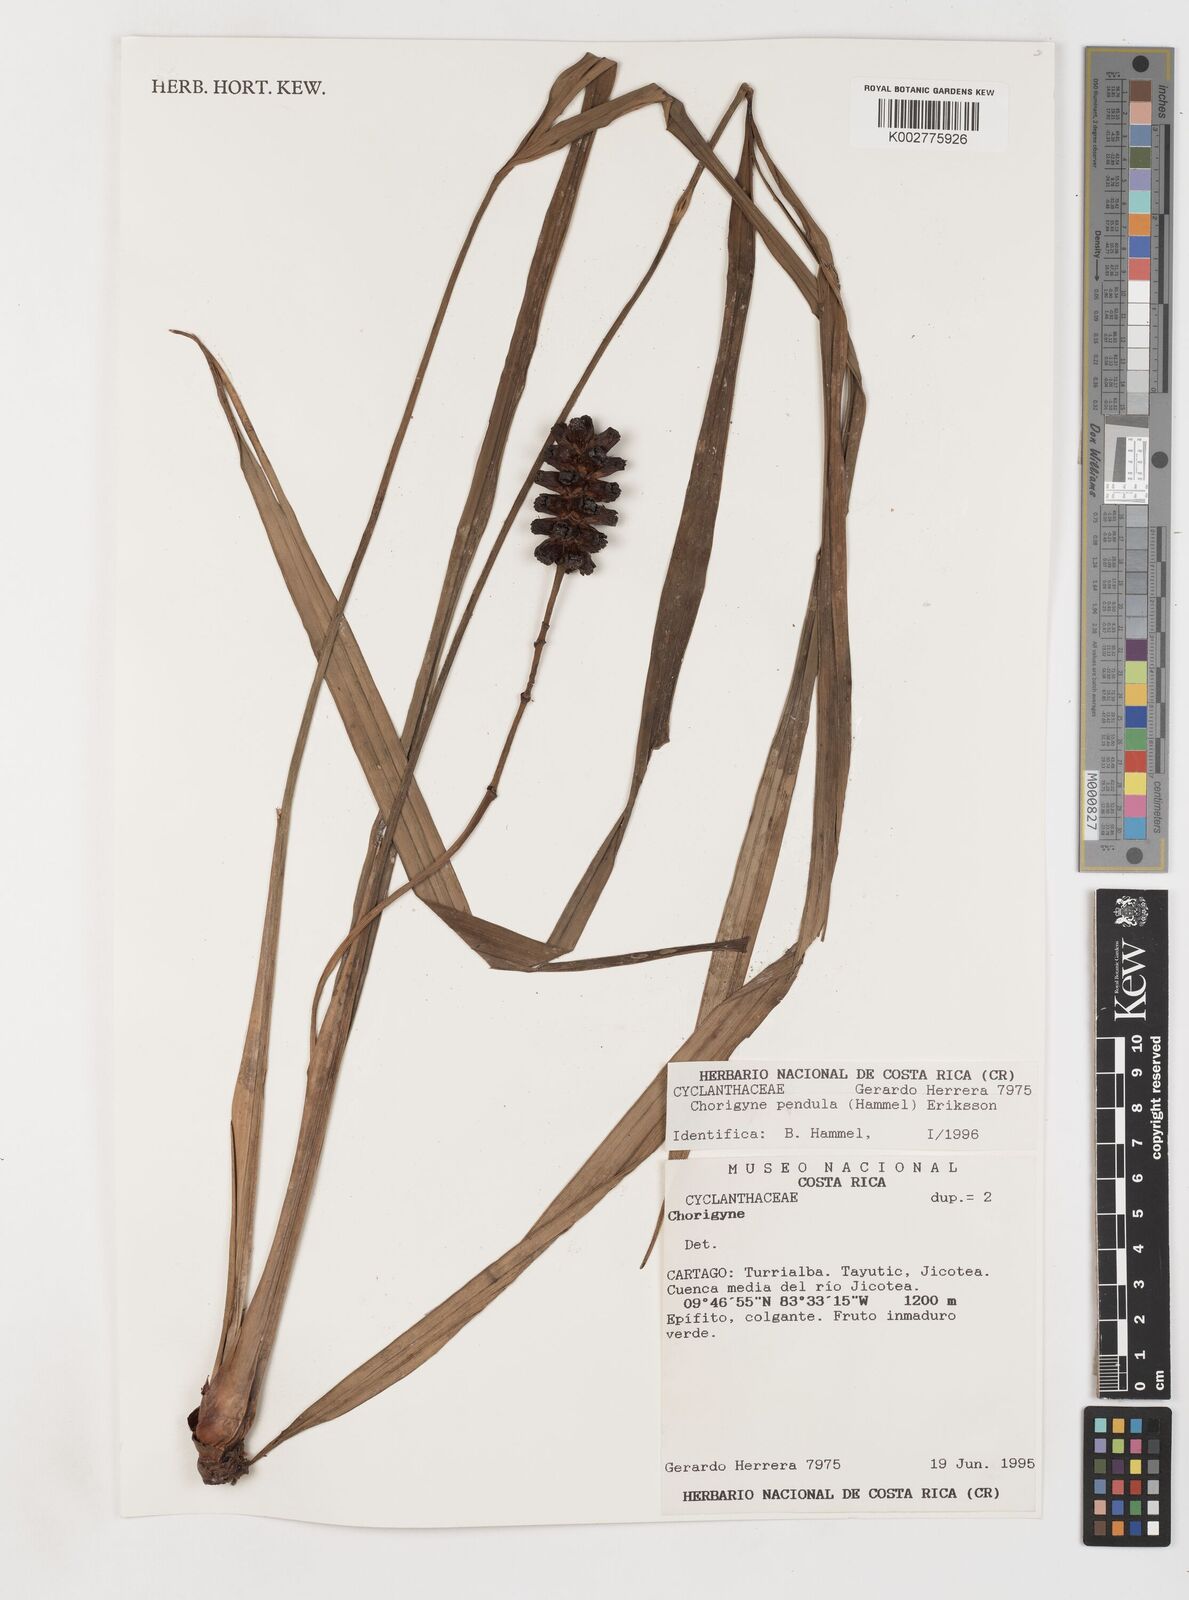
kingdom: Plantae
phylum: Tracheophyta
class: Liliopsida
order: Pandanales
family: Cyclanthaceae
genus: Chorigyne
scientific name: Chorigyne pendula
